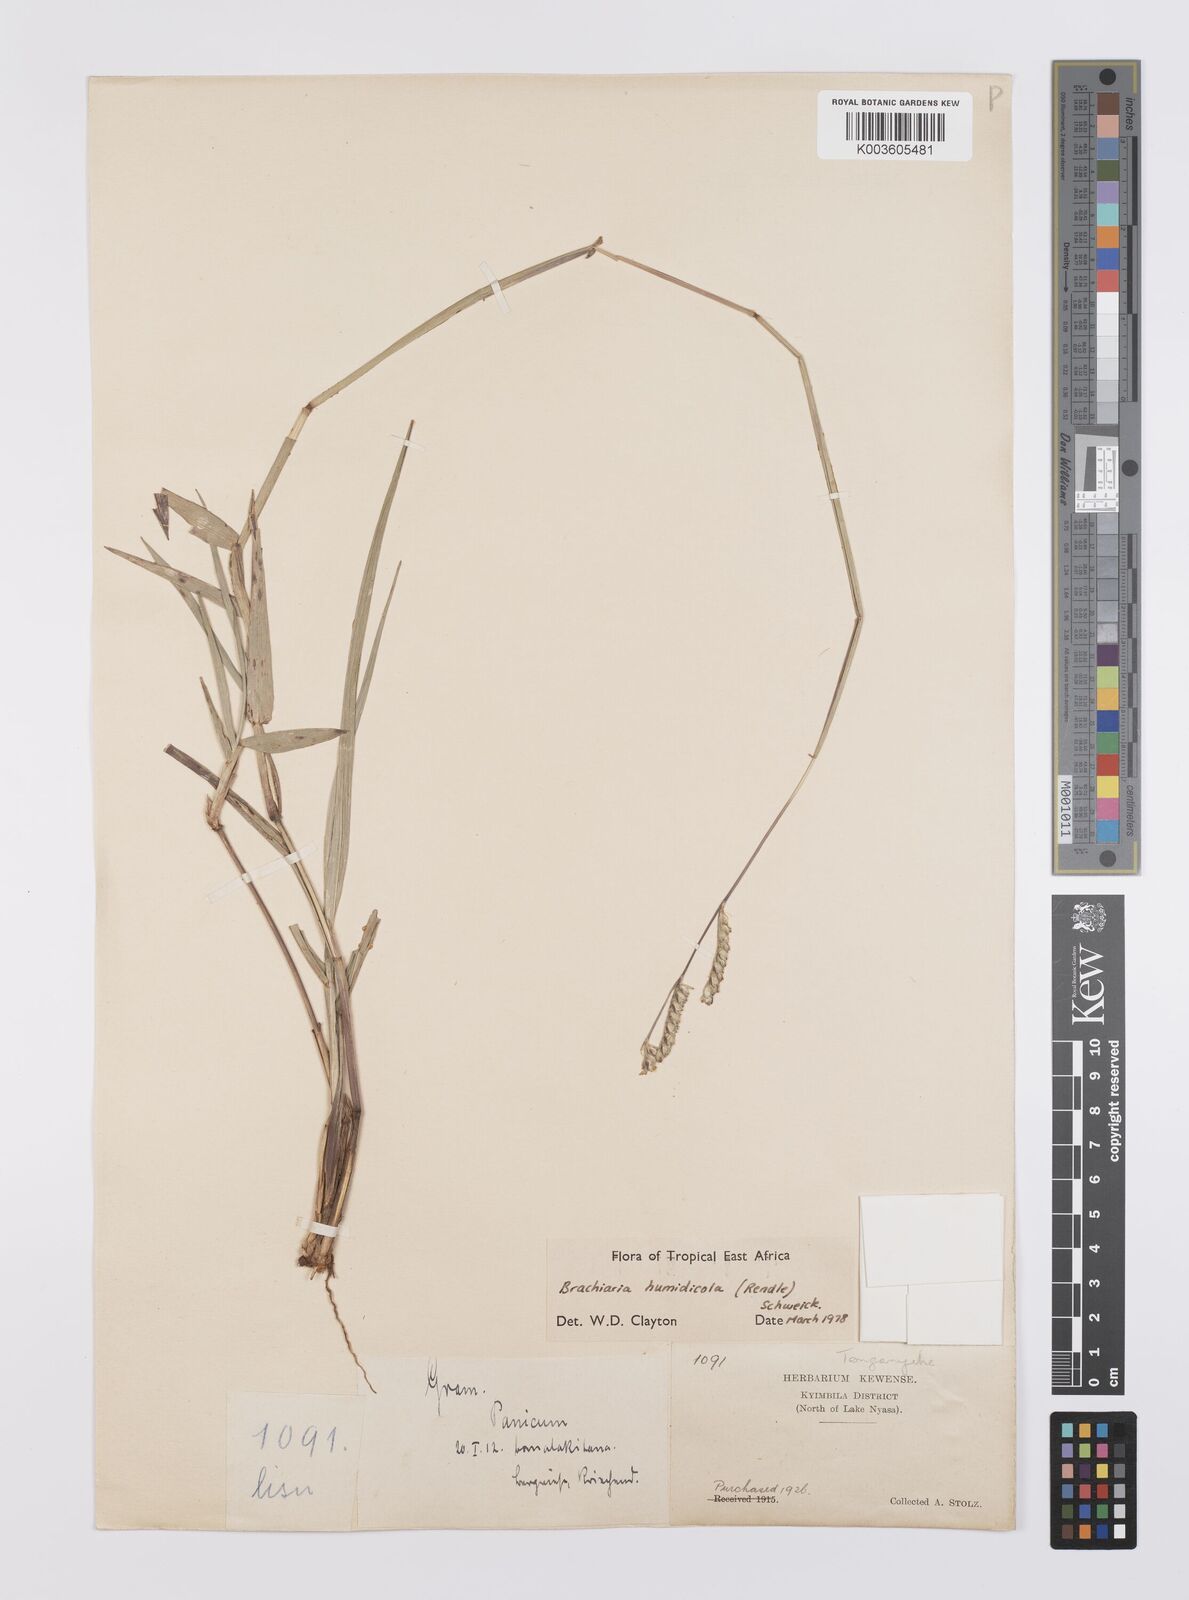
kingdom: Plantae
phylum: Tracheophyta
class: Liliopsida
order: Poales
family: Poaceae
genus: Urochloa
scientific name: Urochloa dictyoneura
